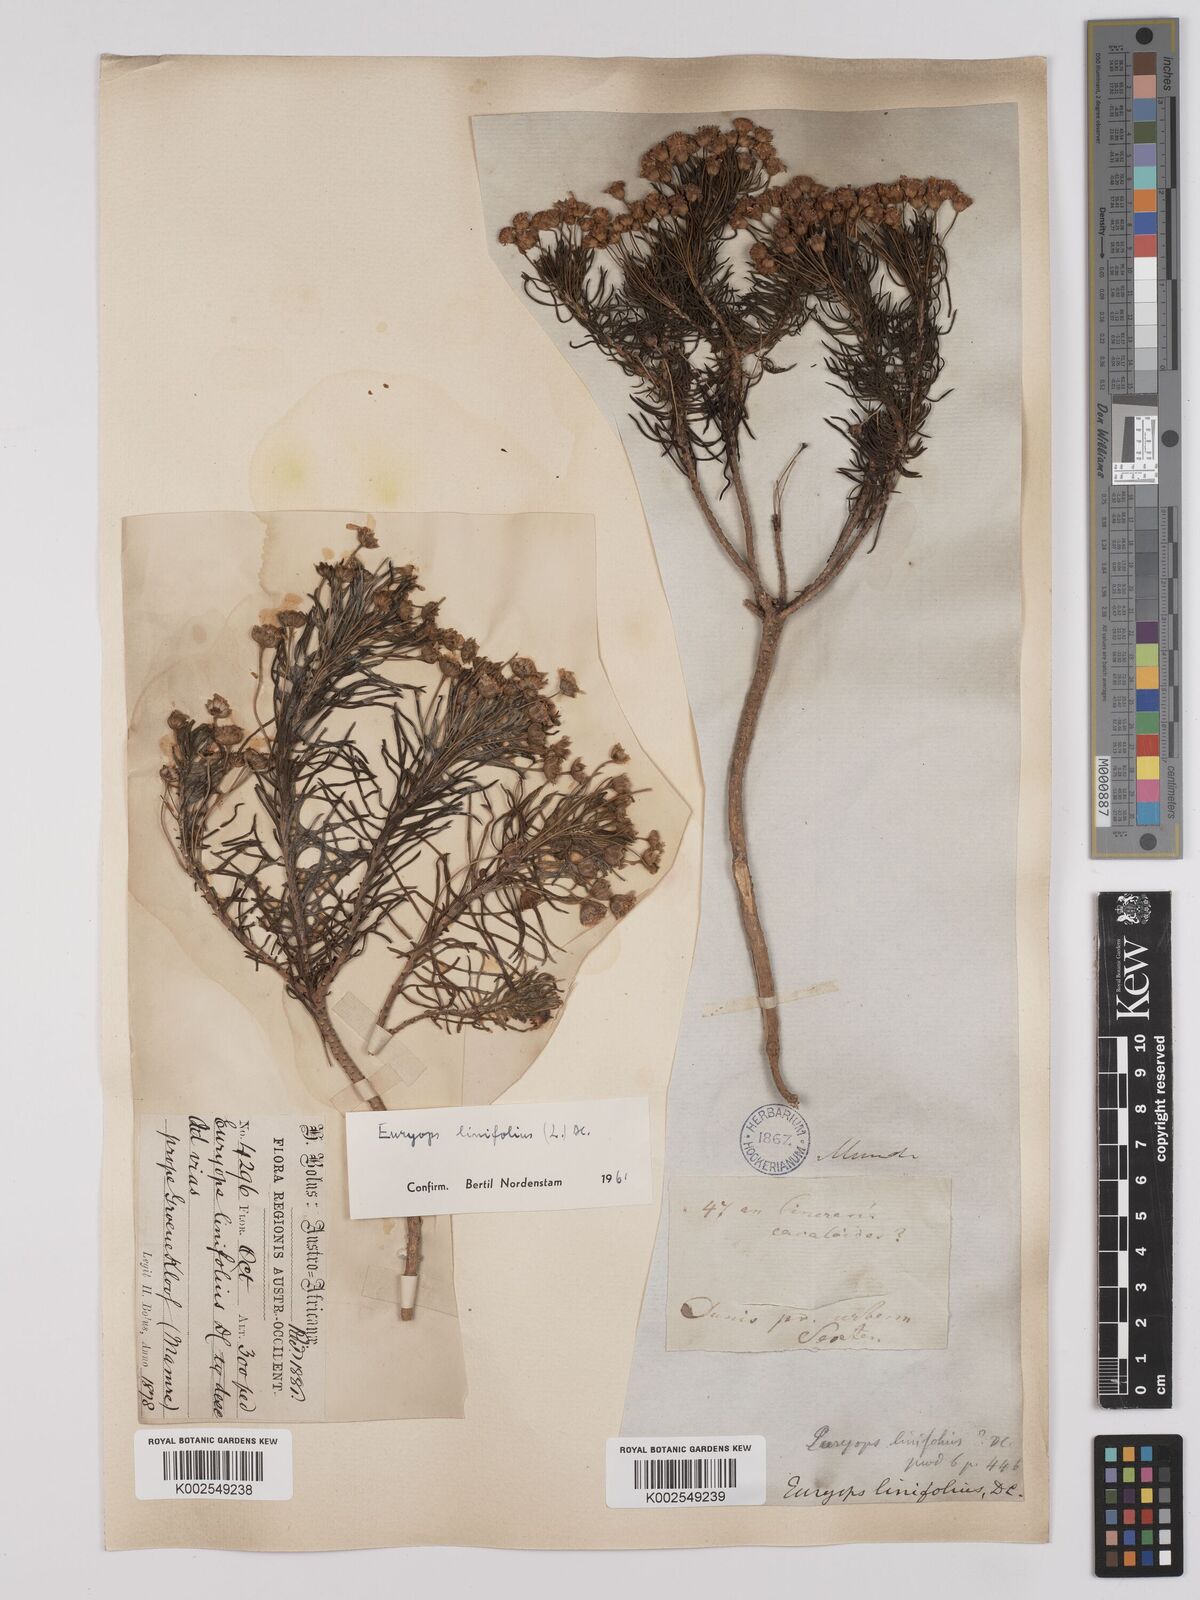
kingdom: Plantae
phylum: Tracheophyta
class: Magnoliopsida
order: Asterales
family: Asteraceae
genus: Euryops
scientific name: Euryops linifolius
